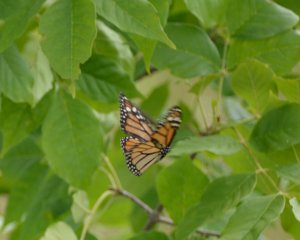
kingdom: Animalia
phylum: Arthropoda
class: Insecta
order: Lepidoptera
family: Nymphalidae
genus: Danaus
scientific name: Danaus plexippus
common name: Monarch
